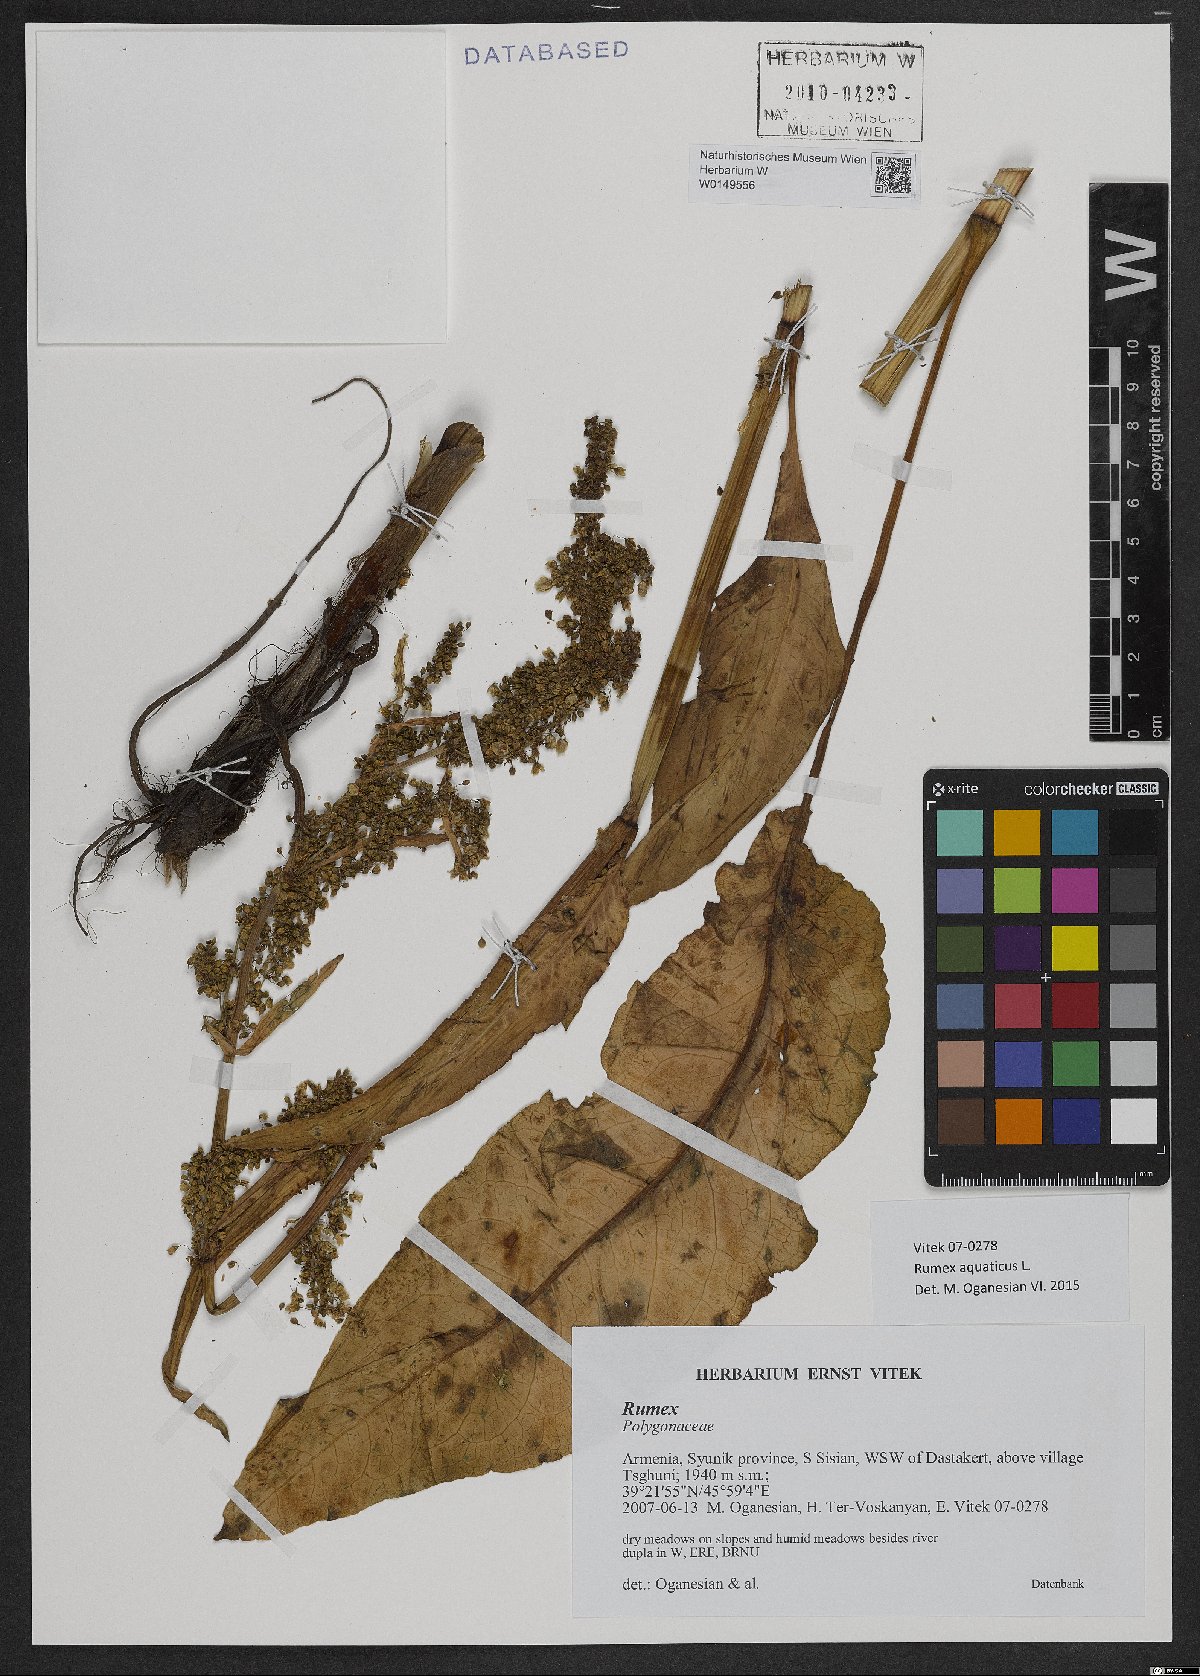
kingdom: Plantae
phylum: Tracheophyta
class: Magnoliopsida
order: Caryophyllales
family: Polygonaceae
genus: Rumex
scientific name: Rumex aquaticus
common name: Scottish dock
